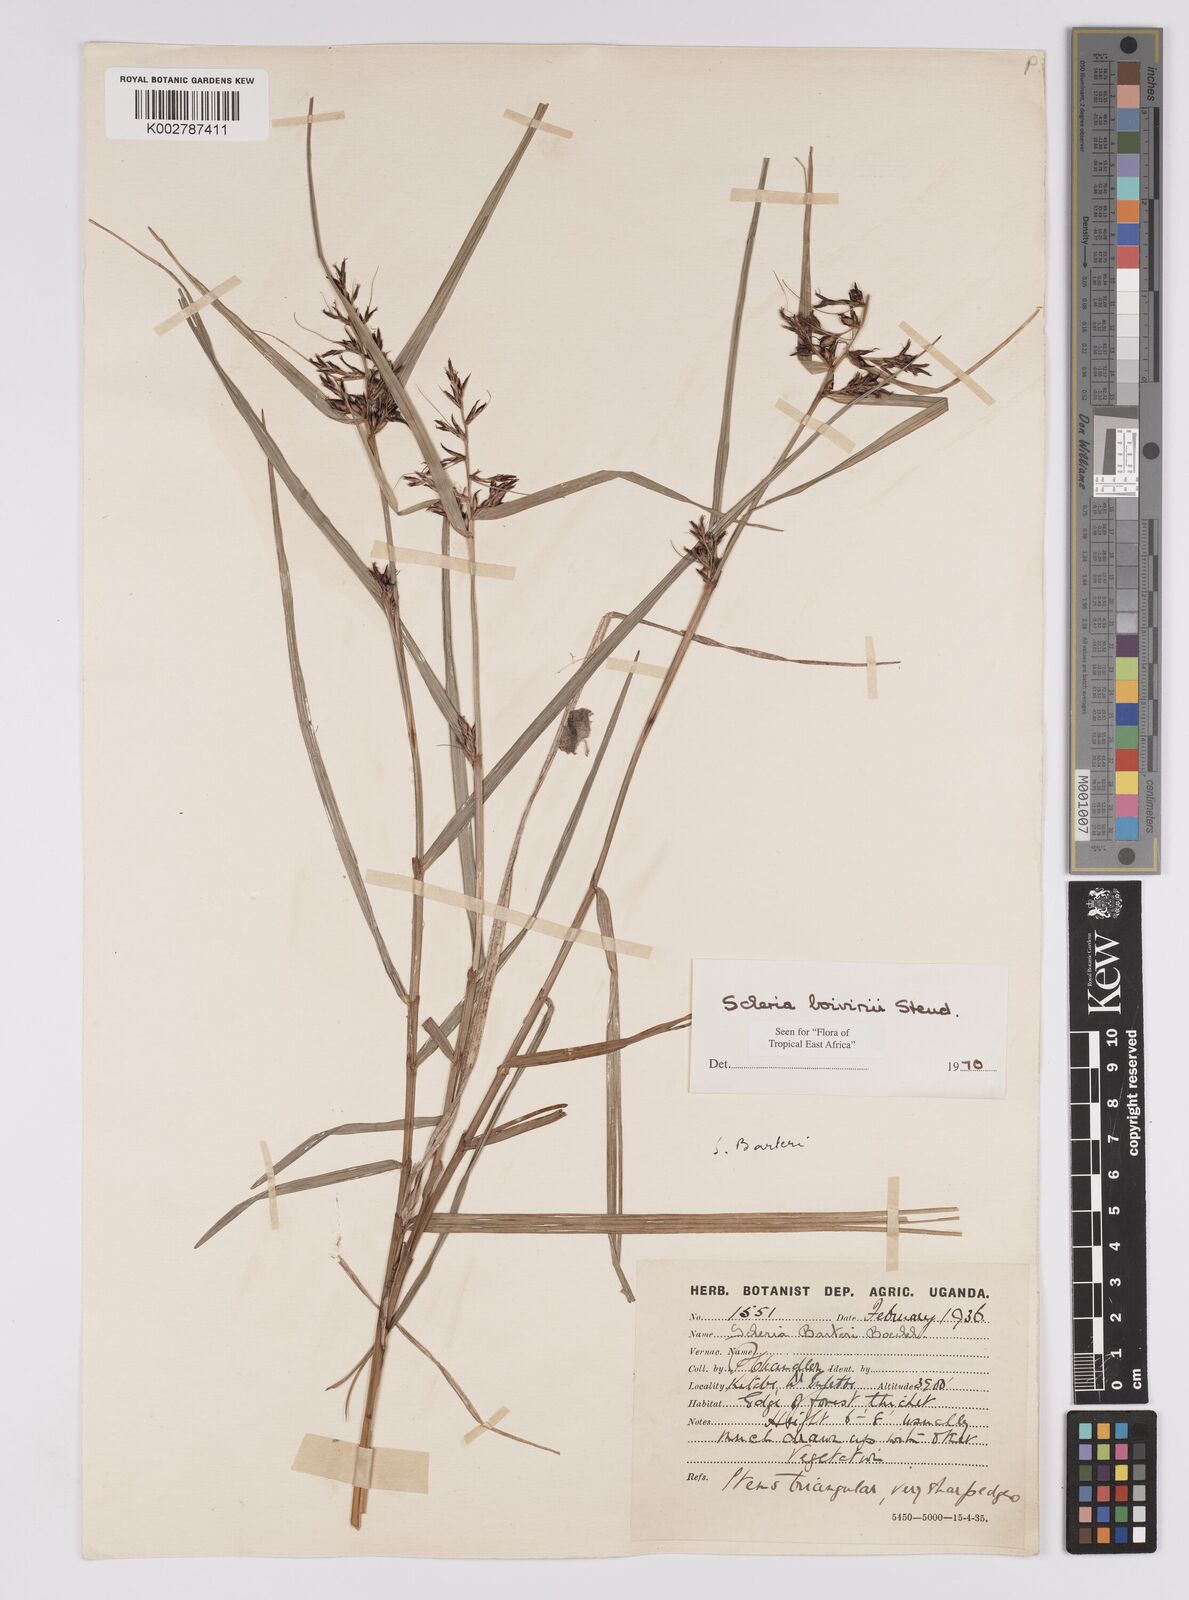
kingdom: Plantae
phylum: Tracheophyta
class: Liliopsida
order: Poales
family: Cyperaceae
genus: Scleria
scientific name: Scleria boivinii
